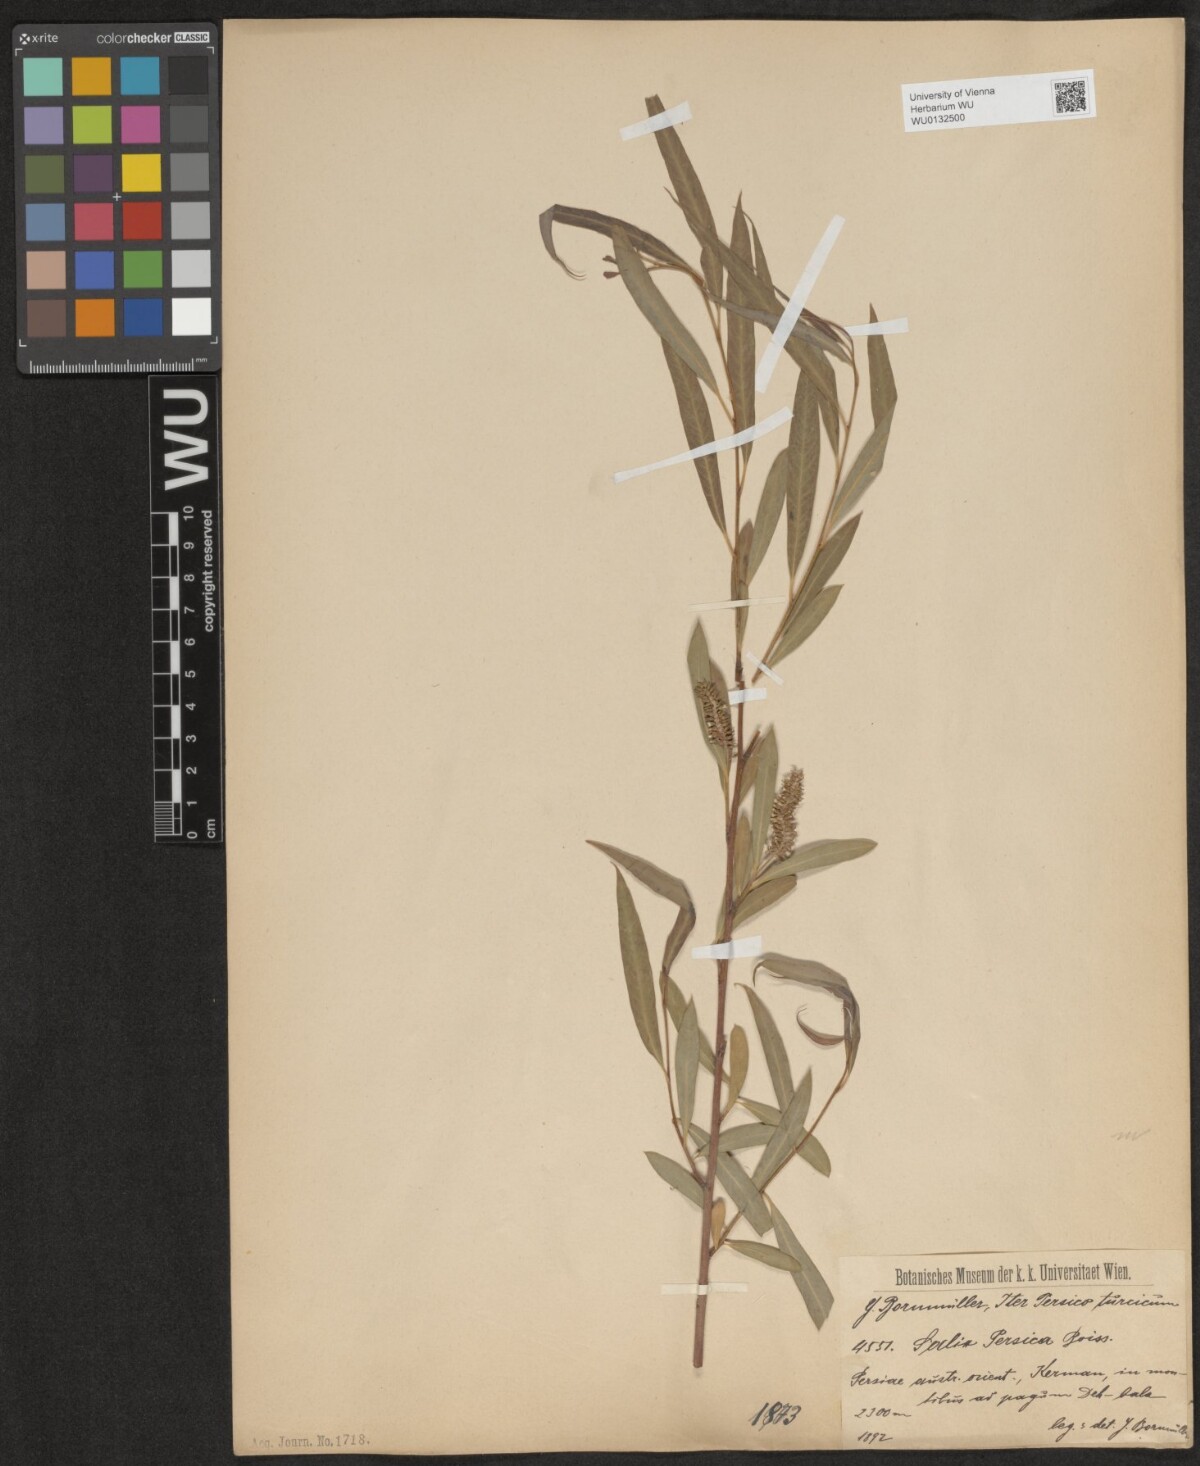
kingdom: Plantae
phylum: Tracheophyta
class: Magnoliopsida
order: Malpighiales
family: Salicaceae
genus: Salix
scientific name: Salix acmophylla
